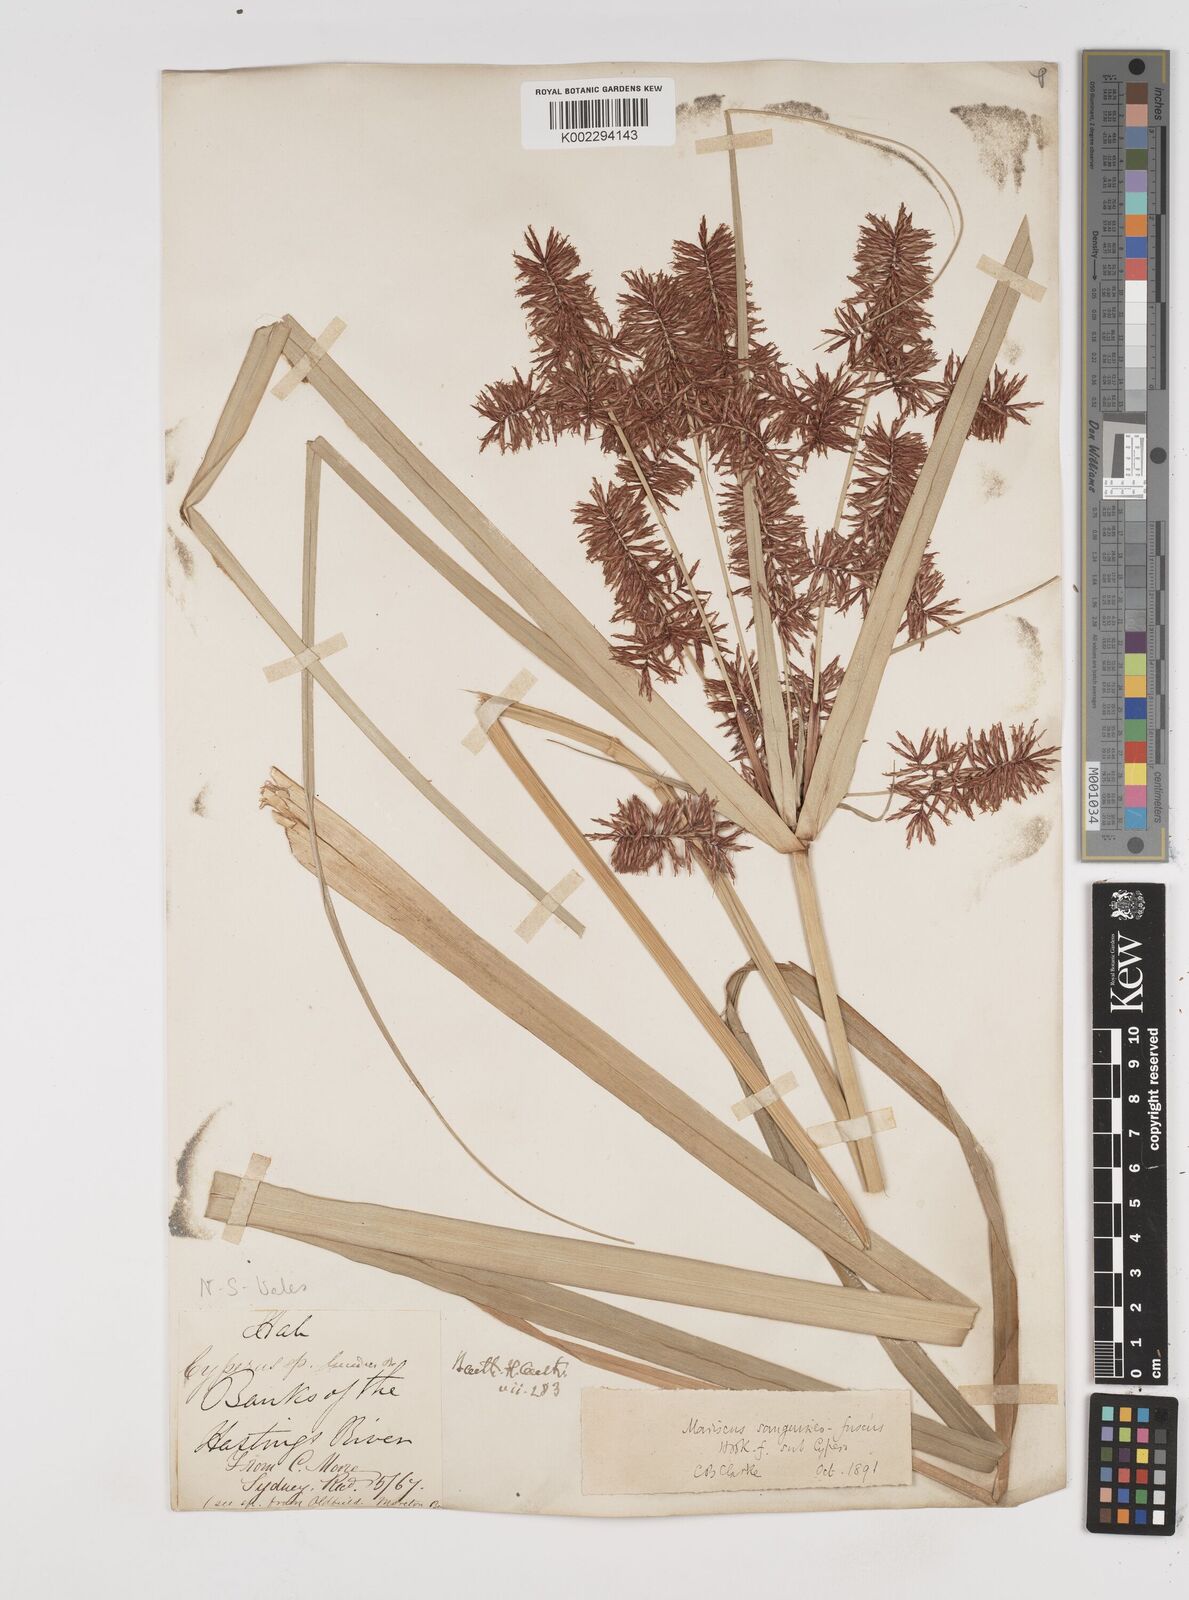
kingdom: Plantae
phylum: Tracheophyta
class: Liliopsida
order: Poales
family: Cyperaceae
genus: Cyperus
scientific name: Cyperus lucidus
